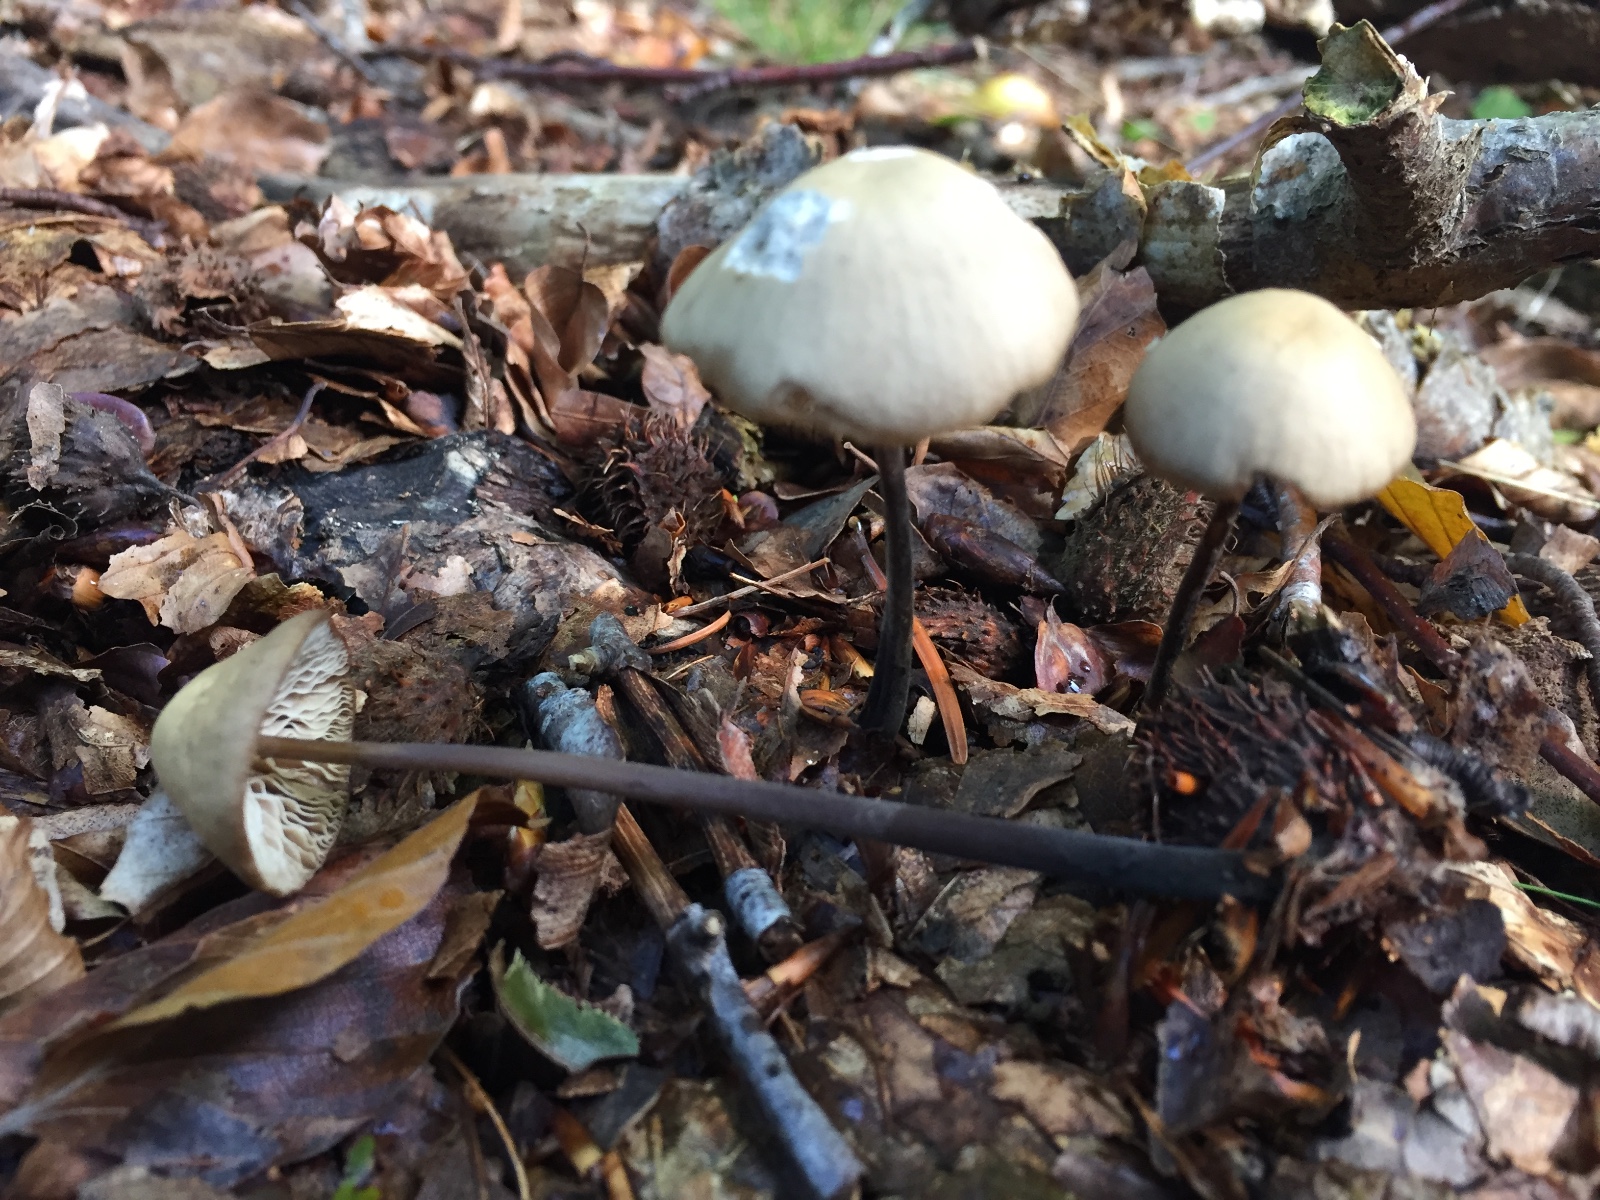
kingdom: Fungi
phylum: Basidiomycota
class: Agaricomycetes
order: Agaricales
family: Omphalotaceae
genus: Mycetinis
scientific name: Mycetinis alliaceus
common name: stor løghat
